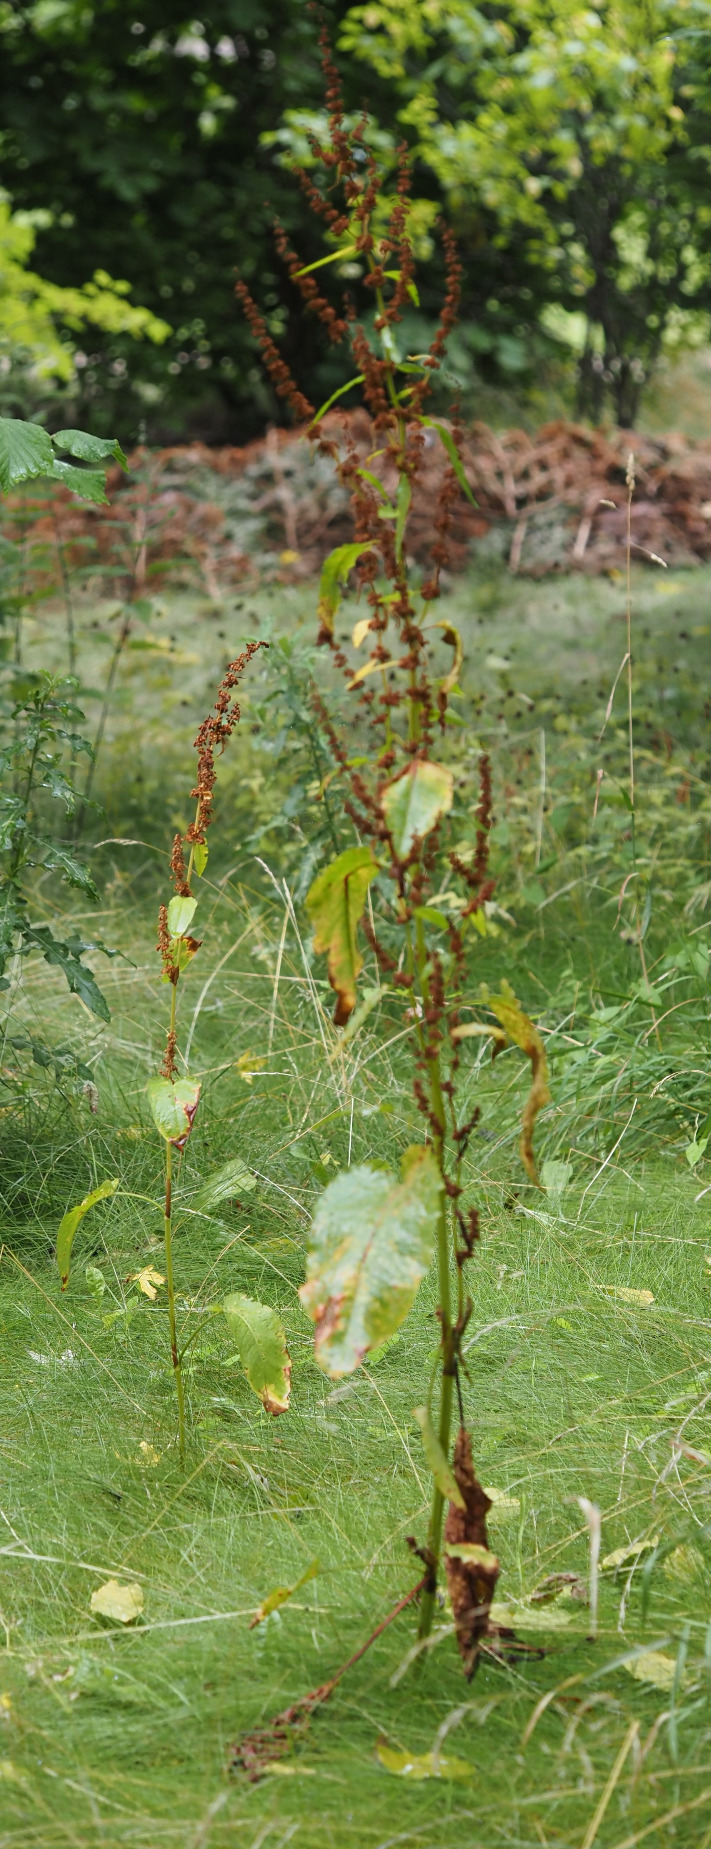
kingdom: Plantae
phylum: Tracheophyta
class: Magnoliopsida
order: Caryophyllales
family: Polygonaceae
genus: Rumex
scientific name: Rumex obtusifolius
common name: Butbladet skræppe
